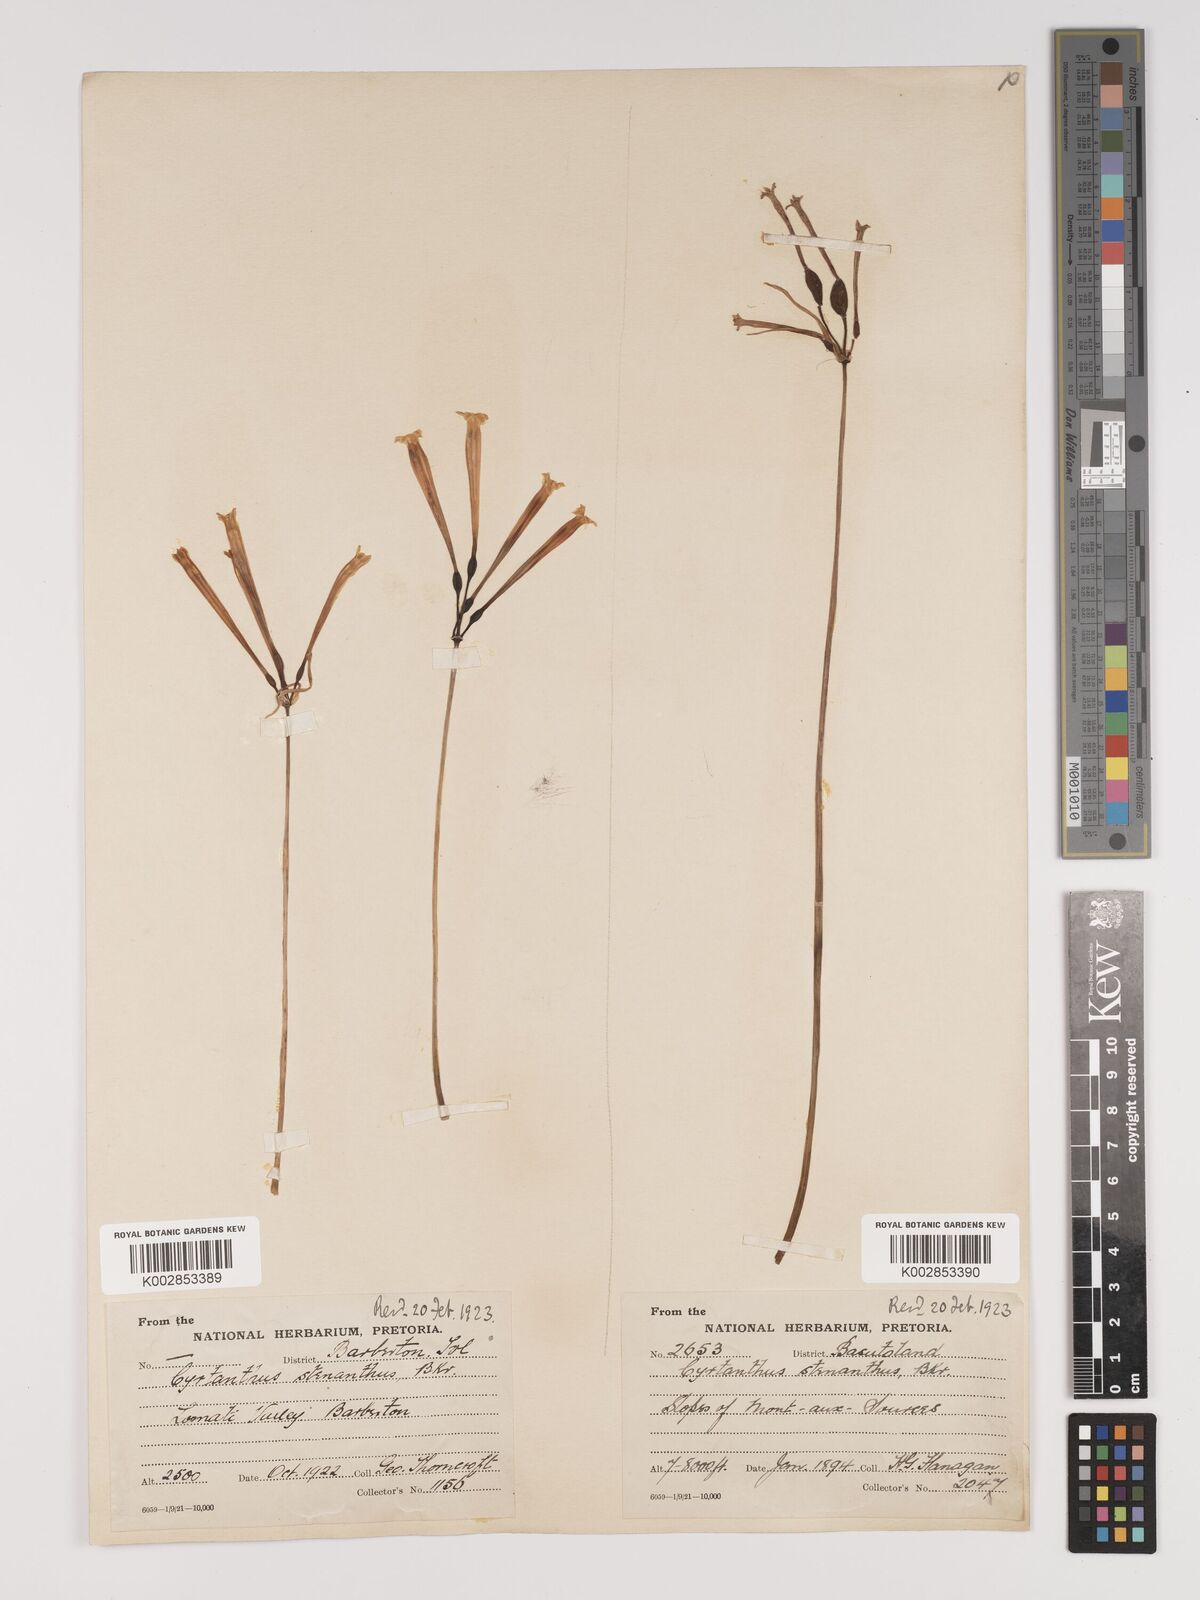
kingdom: Plantae
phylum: Tracheophyta
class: Liliopsida
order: Asparagales
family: Amaryllidaceae
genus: Cyrtanthus
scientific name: Cyrtanthus stenanthus
